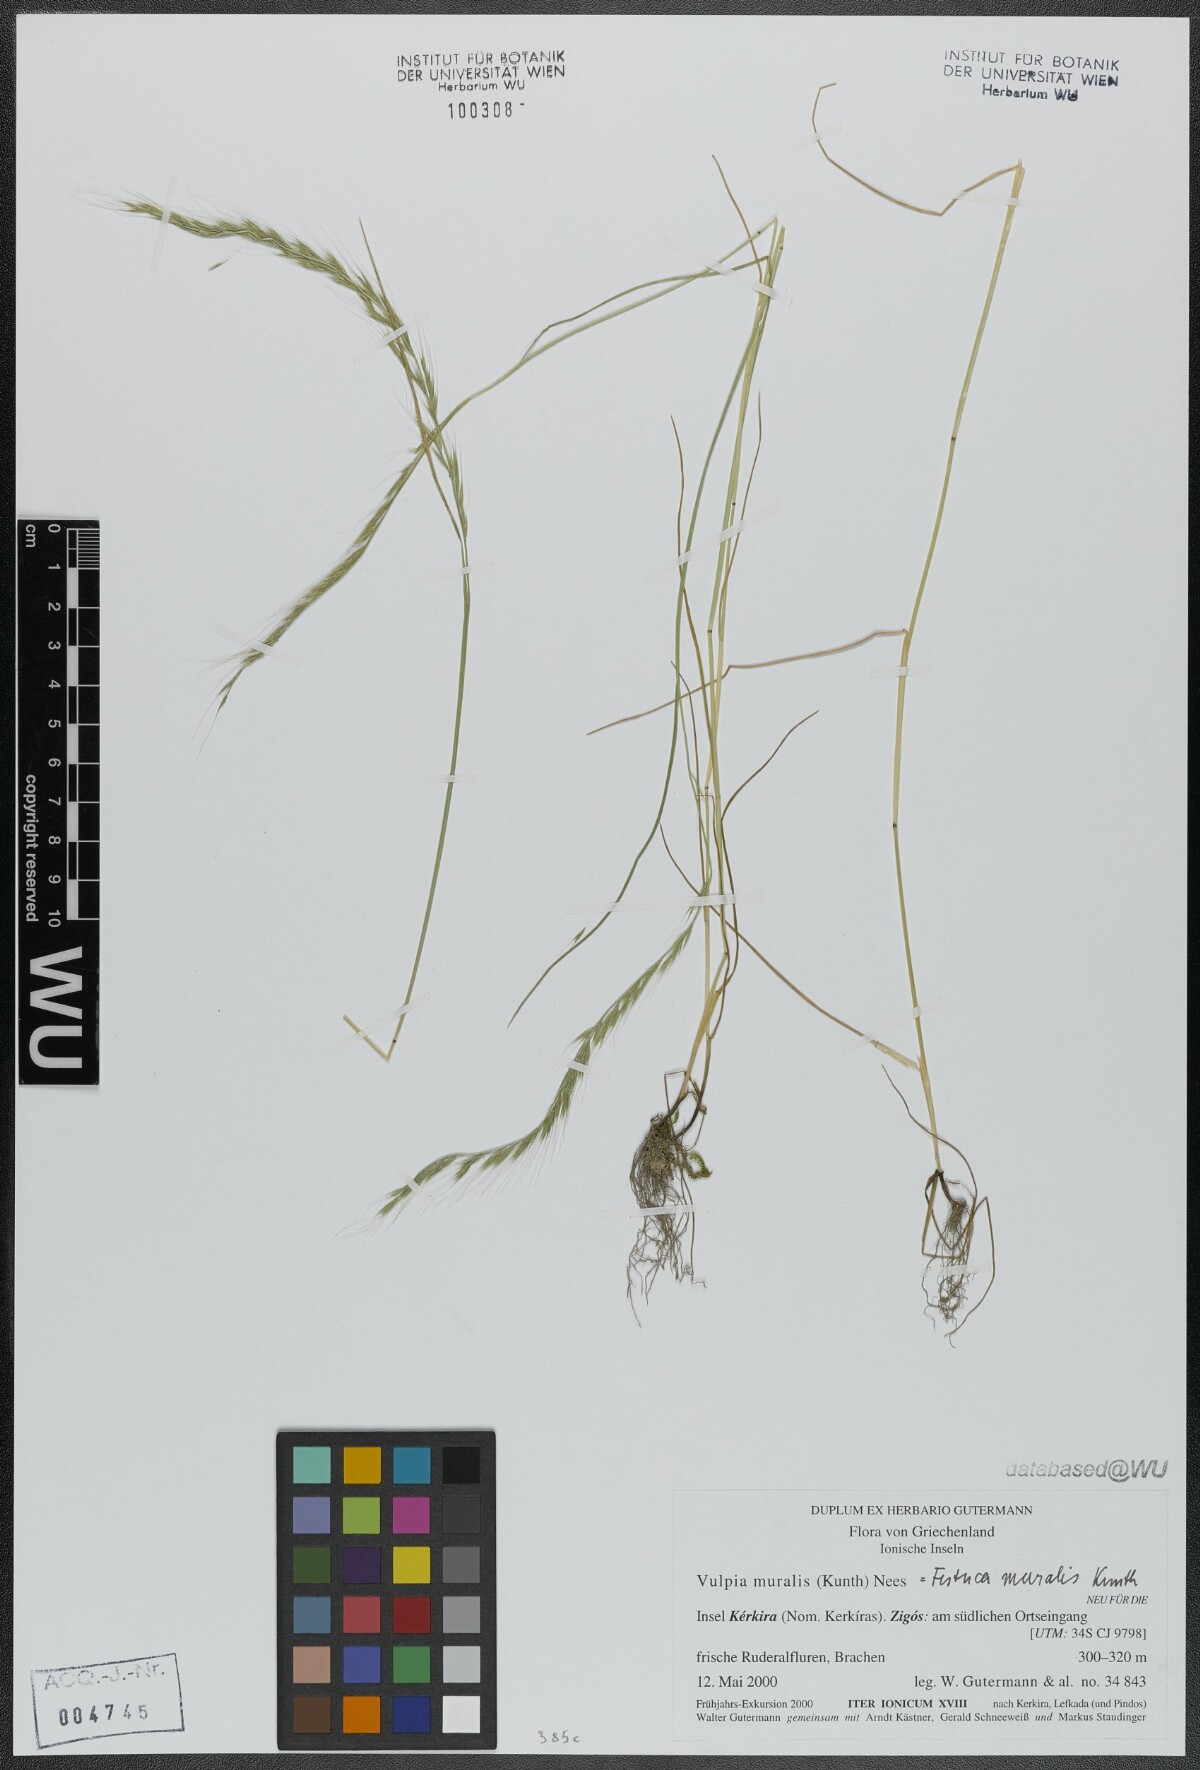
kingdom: Plantae
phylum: Tracheophyta
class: Liliopsida
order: Poales
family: Poaceae
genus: Festuca
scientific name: Festuca muralis
